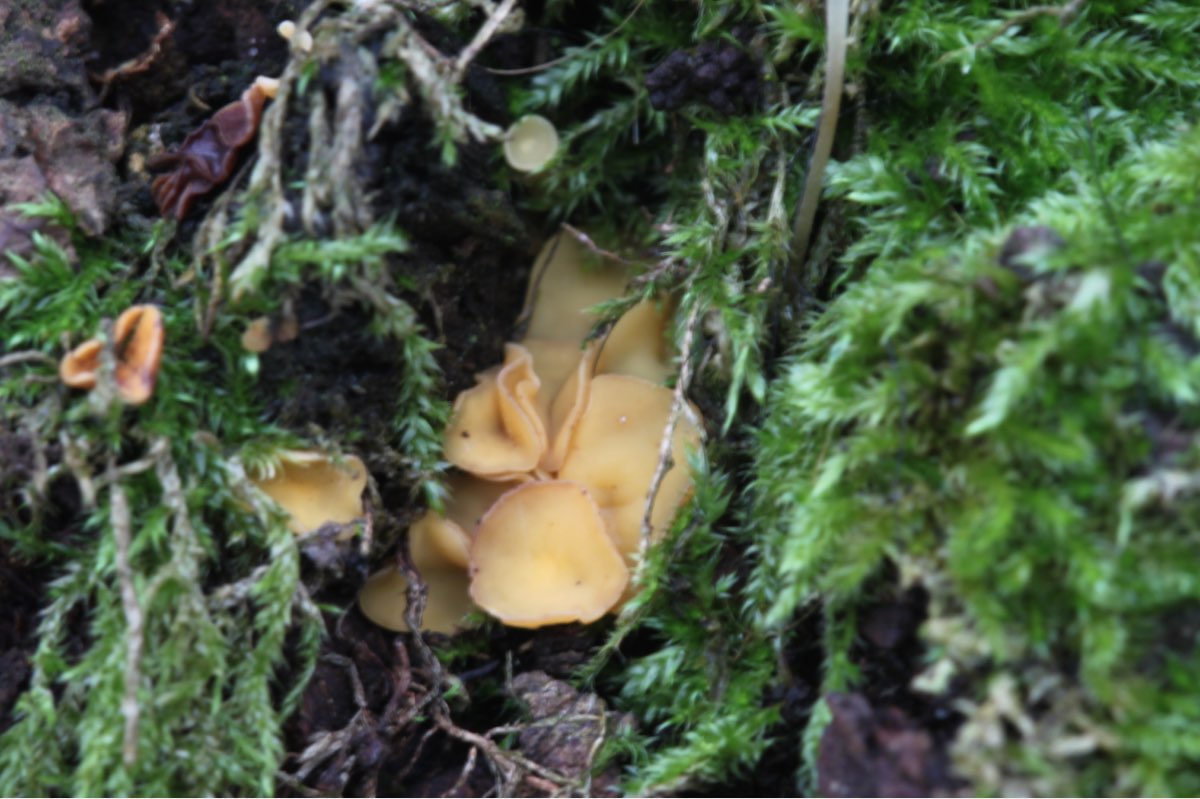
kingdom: Fungi
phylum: Ascomycota
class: Leotiomycetes
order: Helotiales
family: Helotiaceae
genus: Hymenoscyphus
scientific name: Hymenoscyphus calyculus
